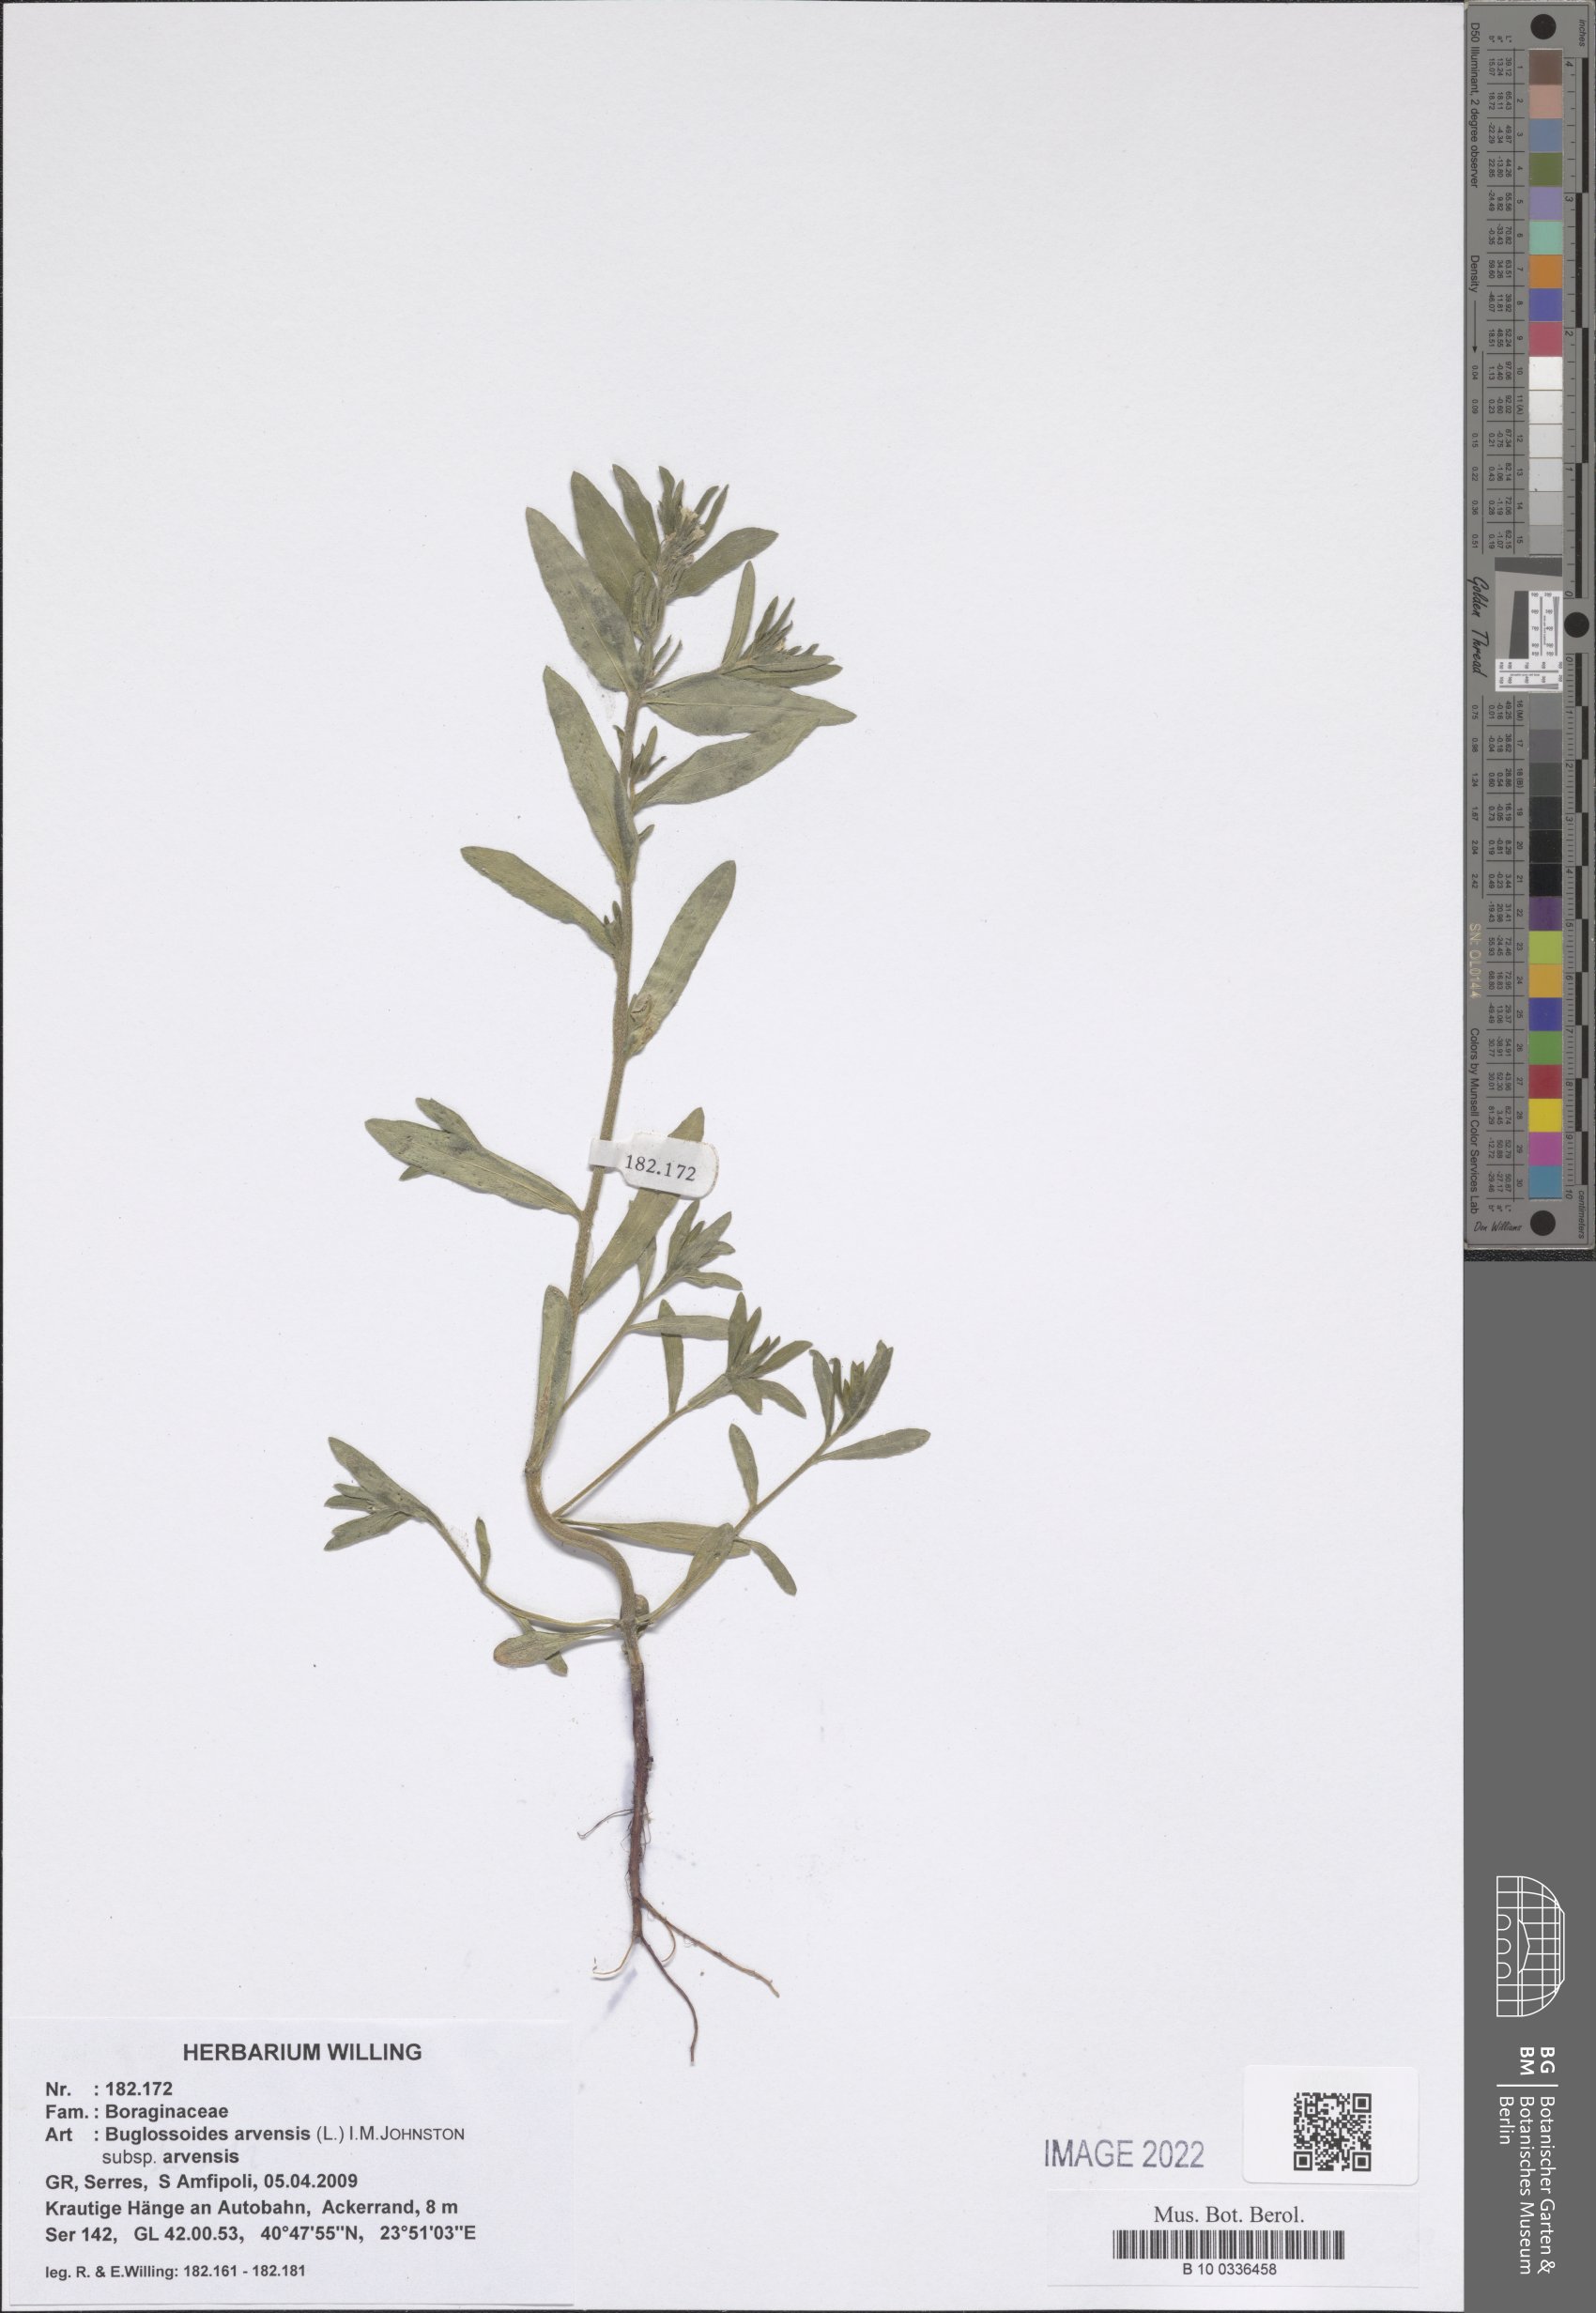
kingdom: Plantae
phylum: Tracheophyta
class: Magnoliopsida
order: Boraginales
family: Boraginaceae
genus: Buglossoides
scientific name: Buglossoides arvensis
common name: Corn gromwell
